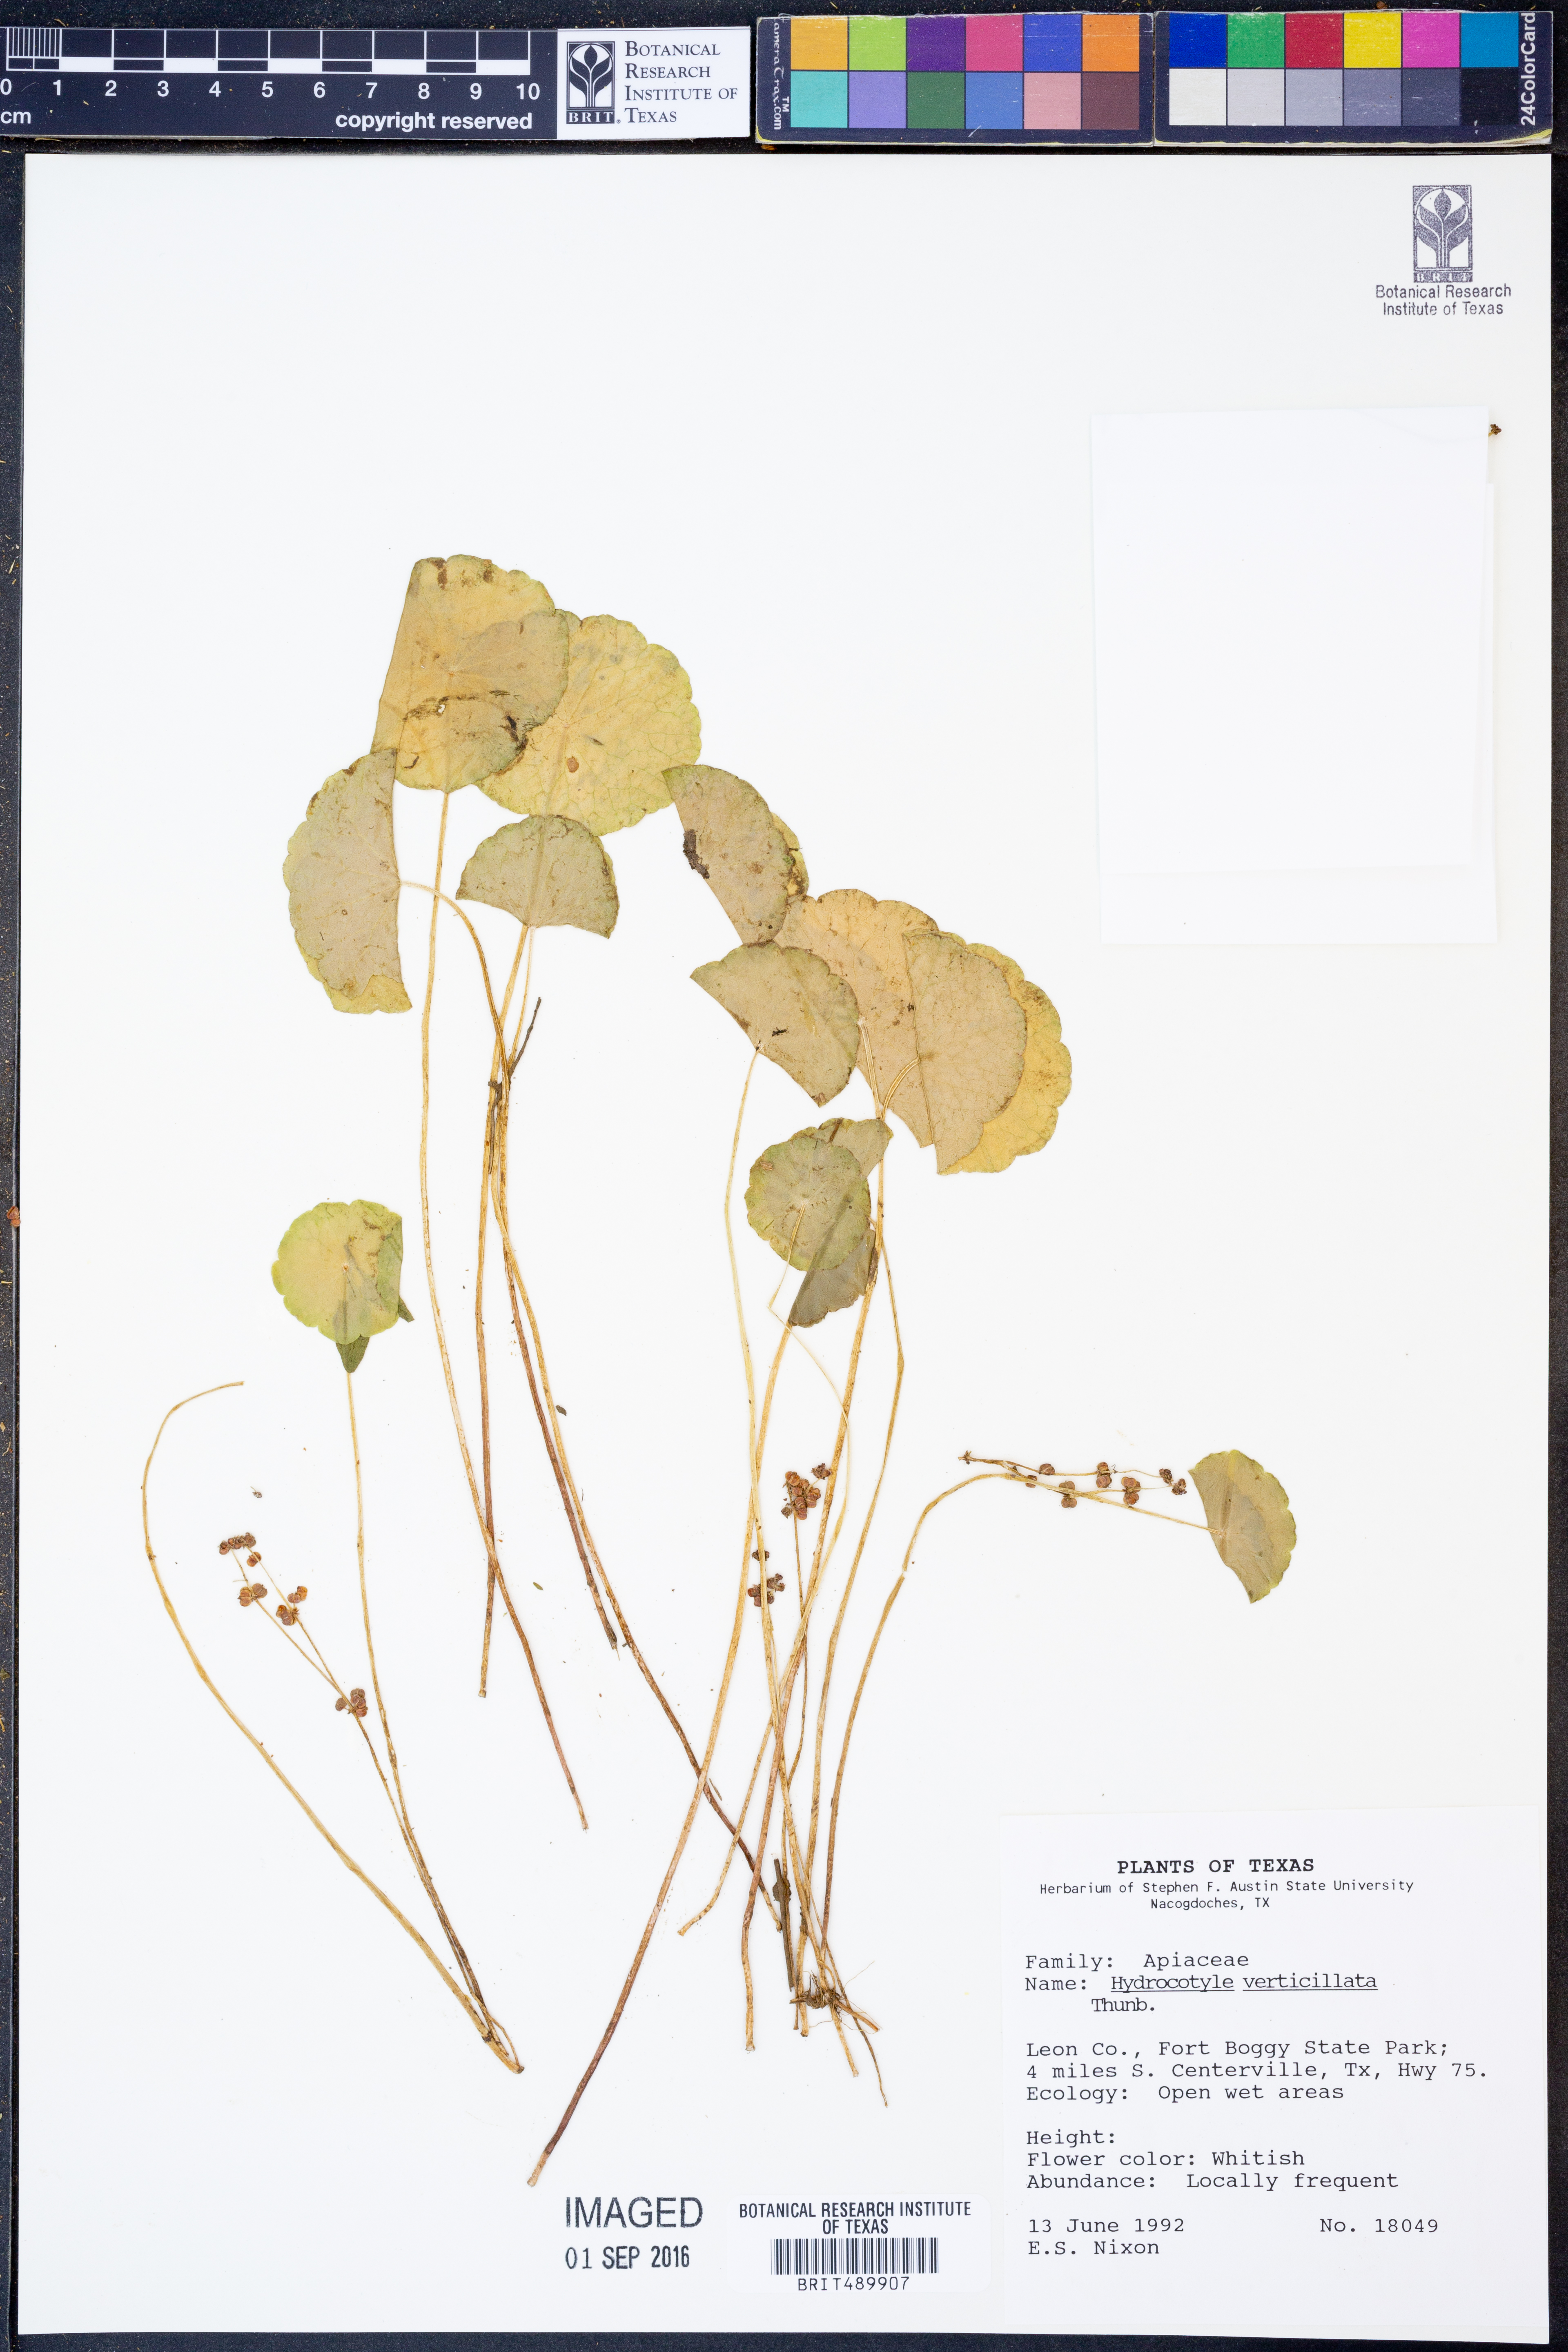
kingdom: Plantae
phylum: Tracheophyta
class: Magnoliopsida
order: Apiales
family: Araliaceae
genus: Hydrocotyle
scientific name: Hydrocotyle verticillata
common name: Whorled marshpennywort
